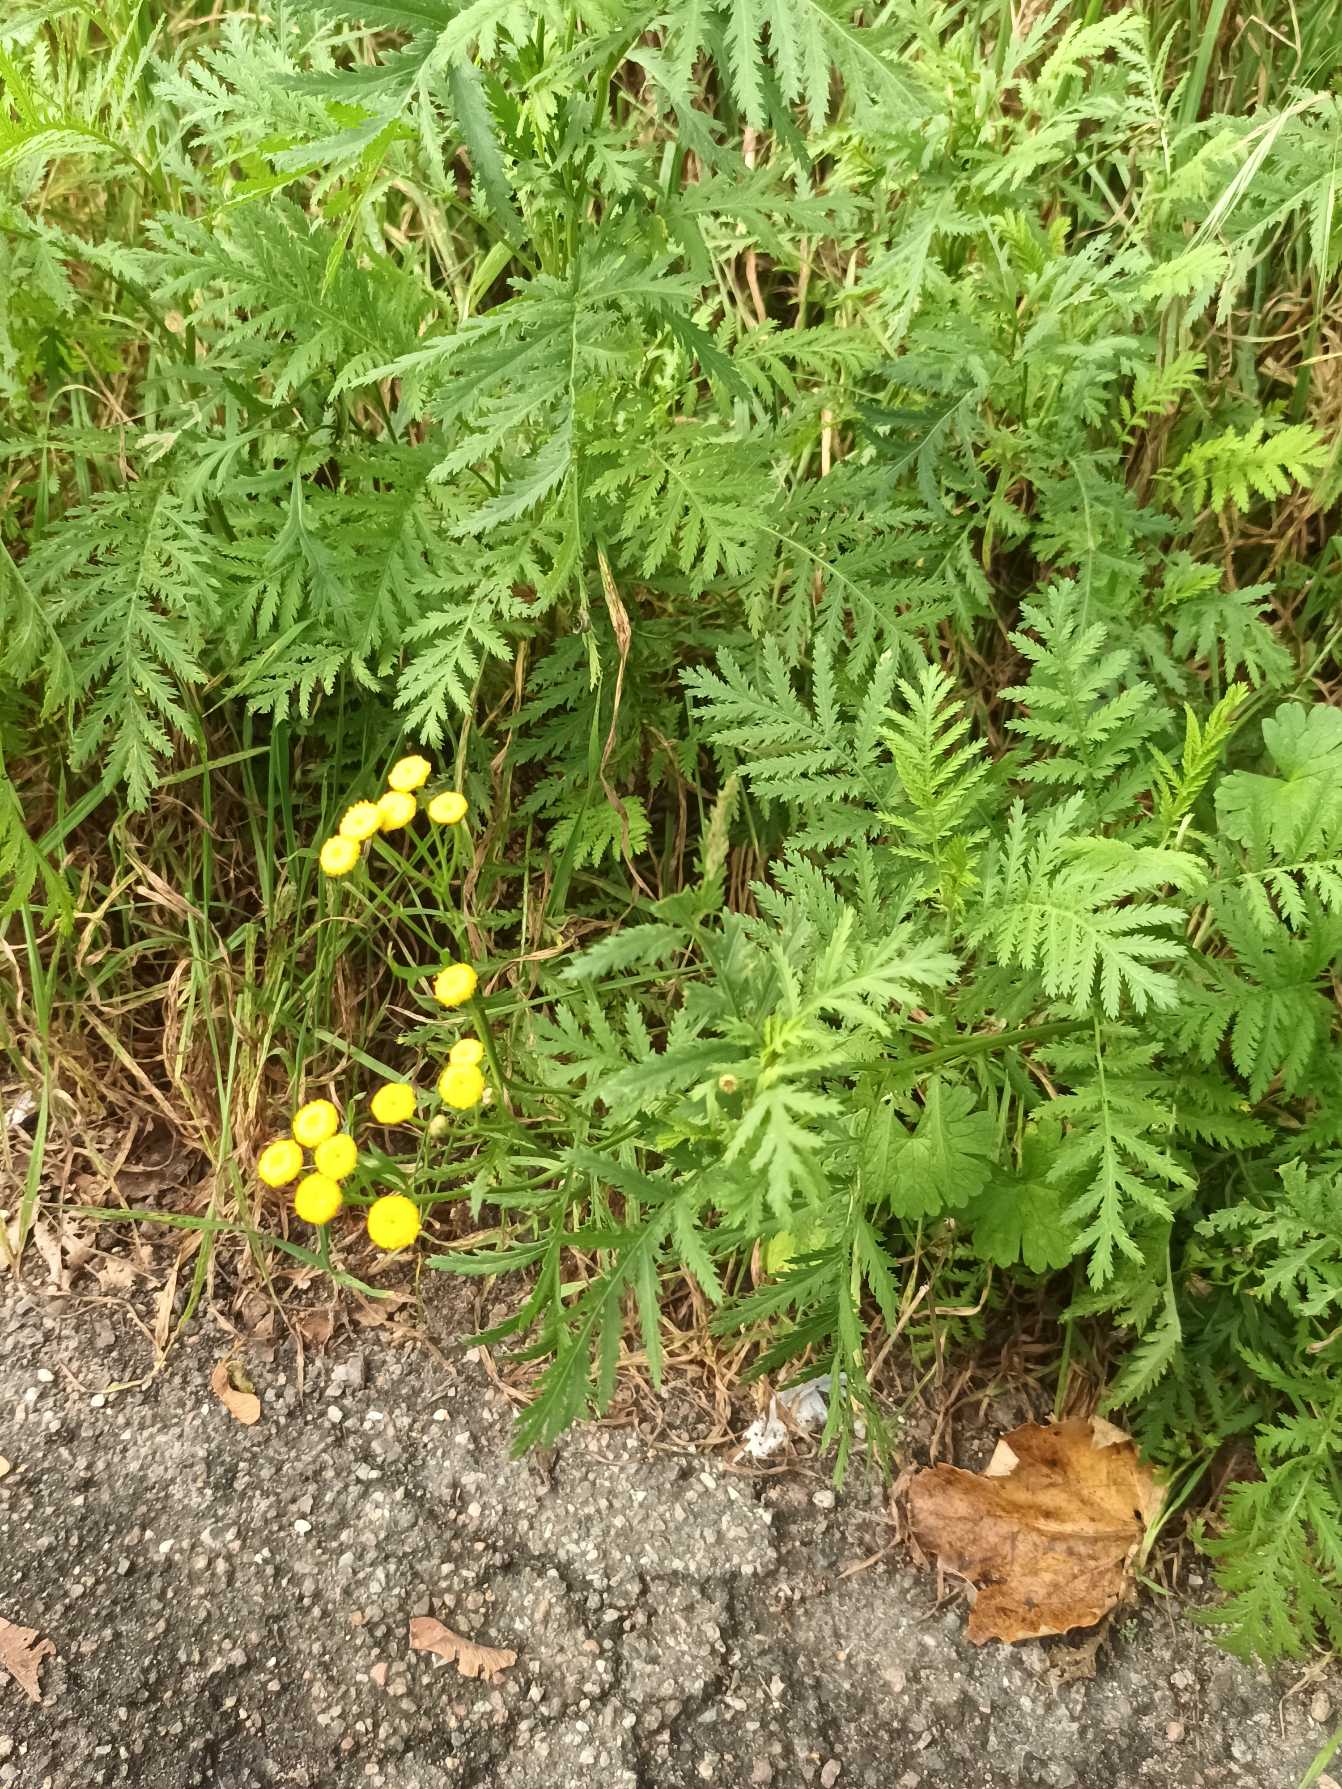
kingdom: Plantae
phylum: Tracheophyta
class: Magnoliopsida
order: Asterales
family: Asteraceae
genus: Tanacetum
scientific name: Tanacetum vulgare
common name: Rejnfan
